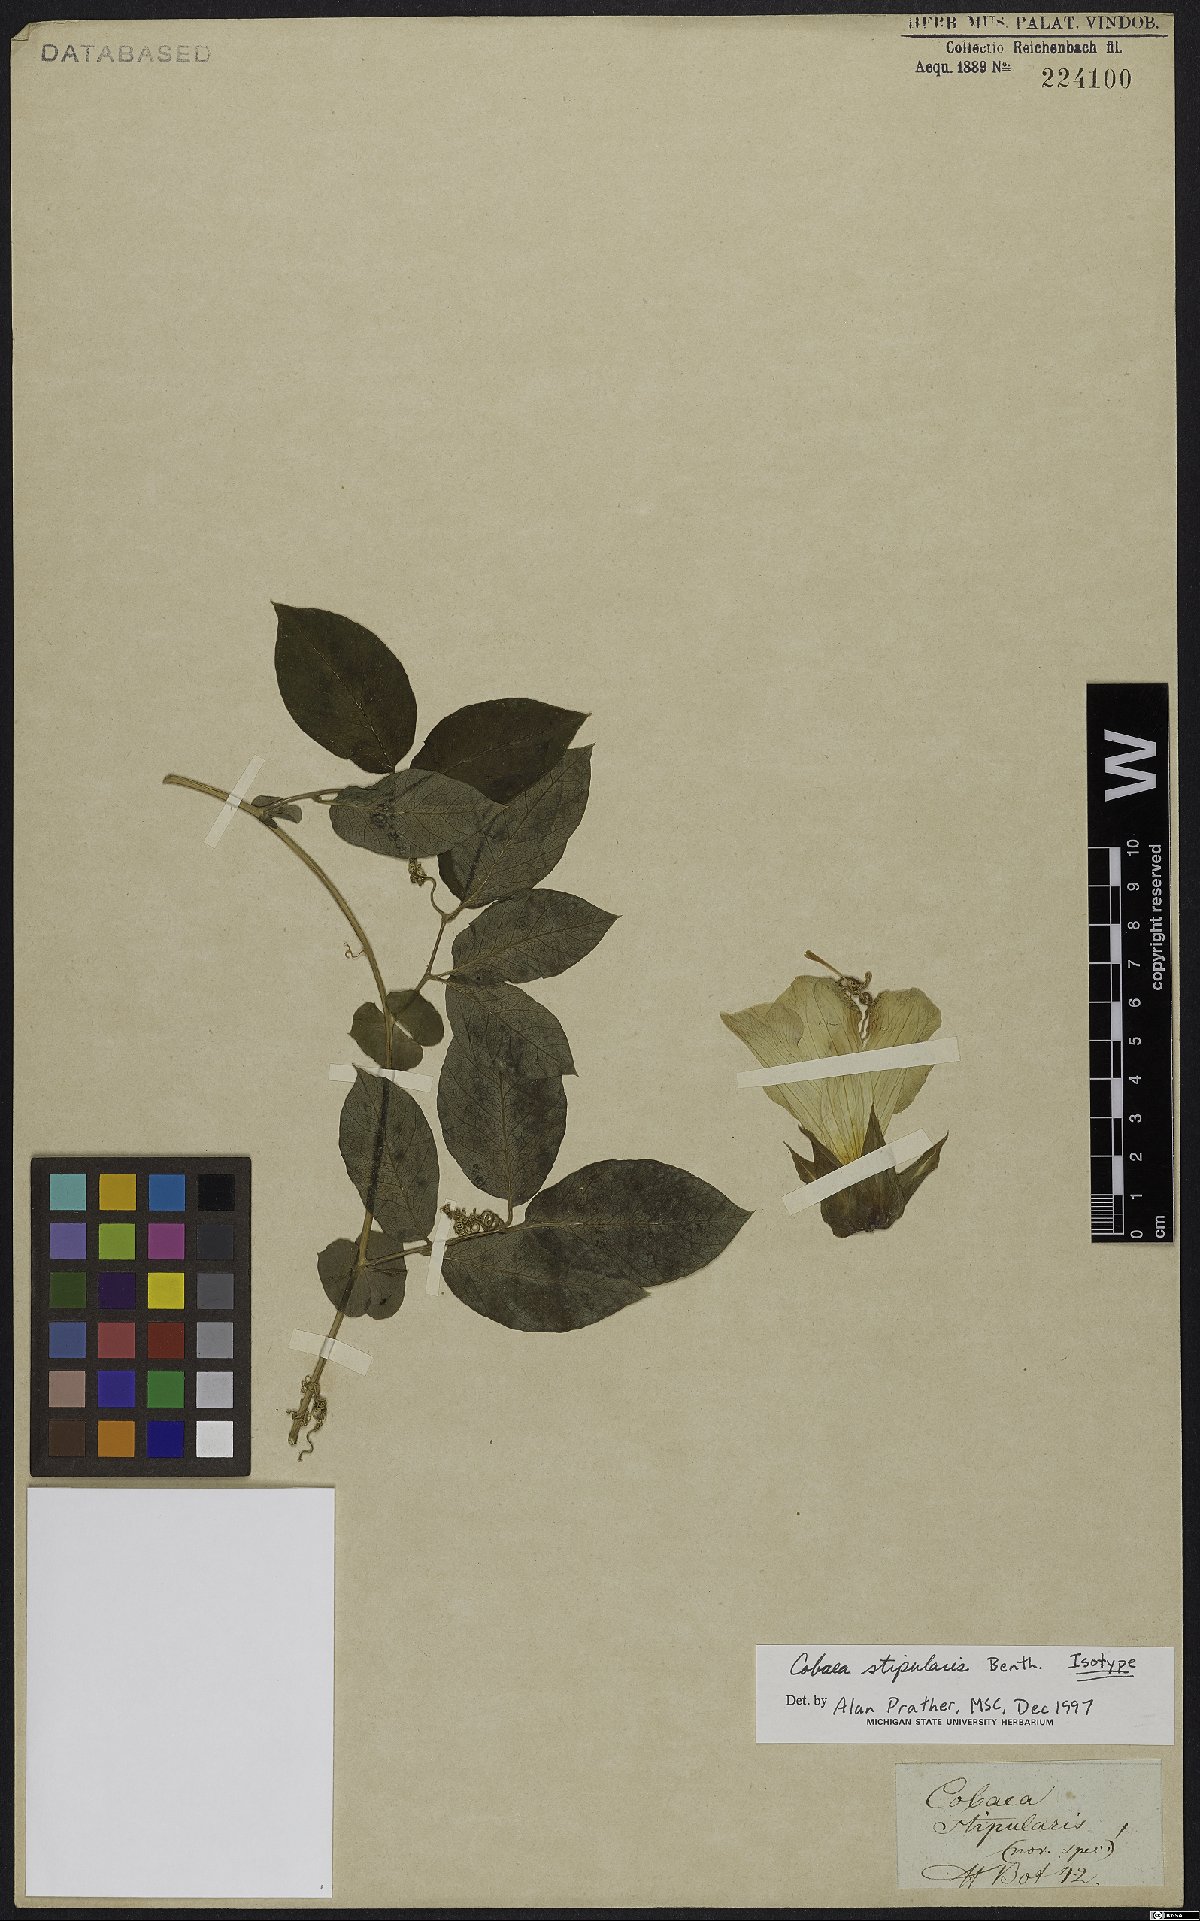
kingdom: Plantae
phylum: Tracheophyta
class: Magnoliopsida
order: Ericales
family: Polemoniaceae
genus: Cobaea
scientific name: Cobaea stipularis
